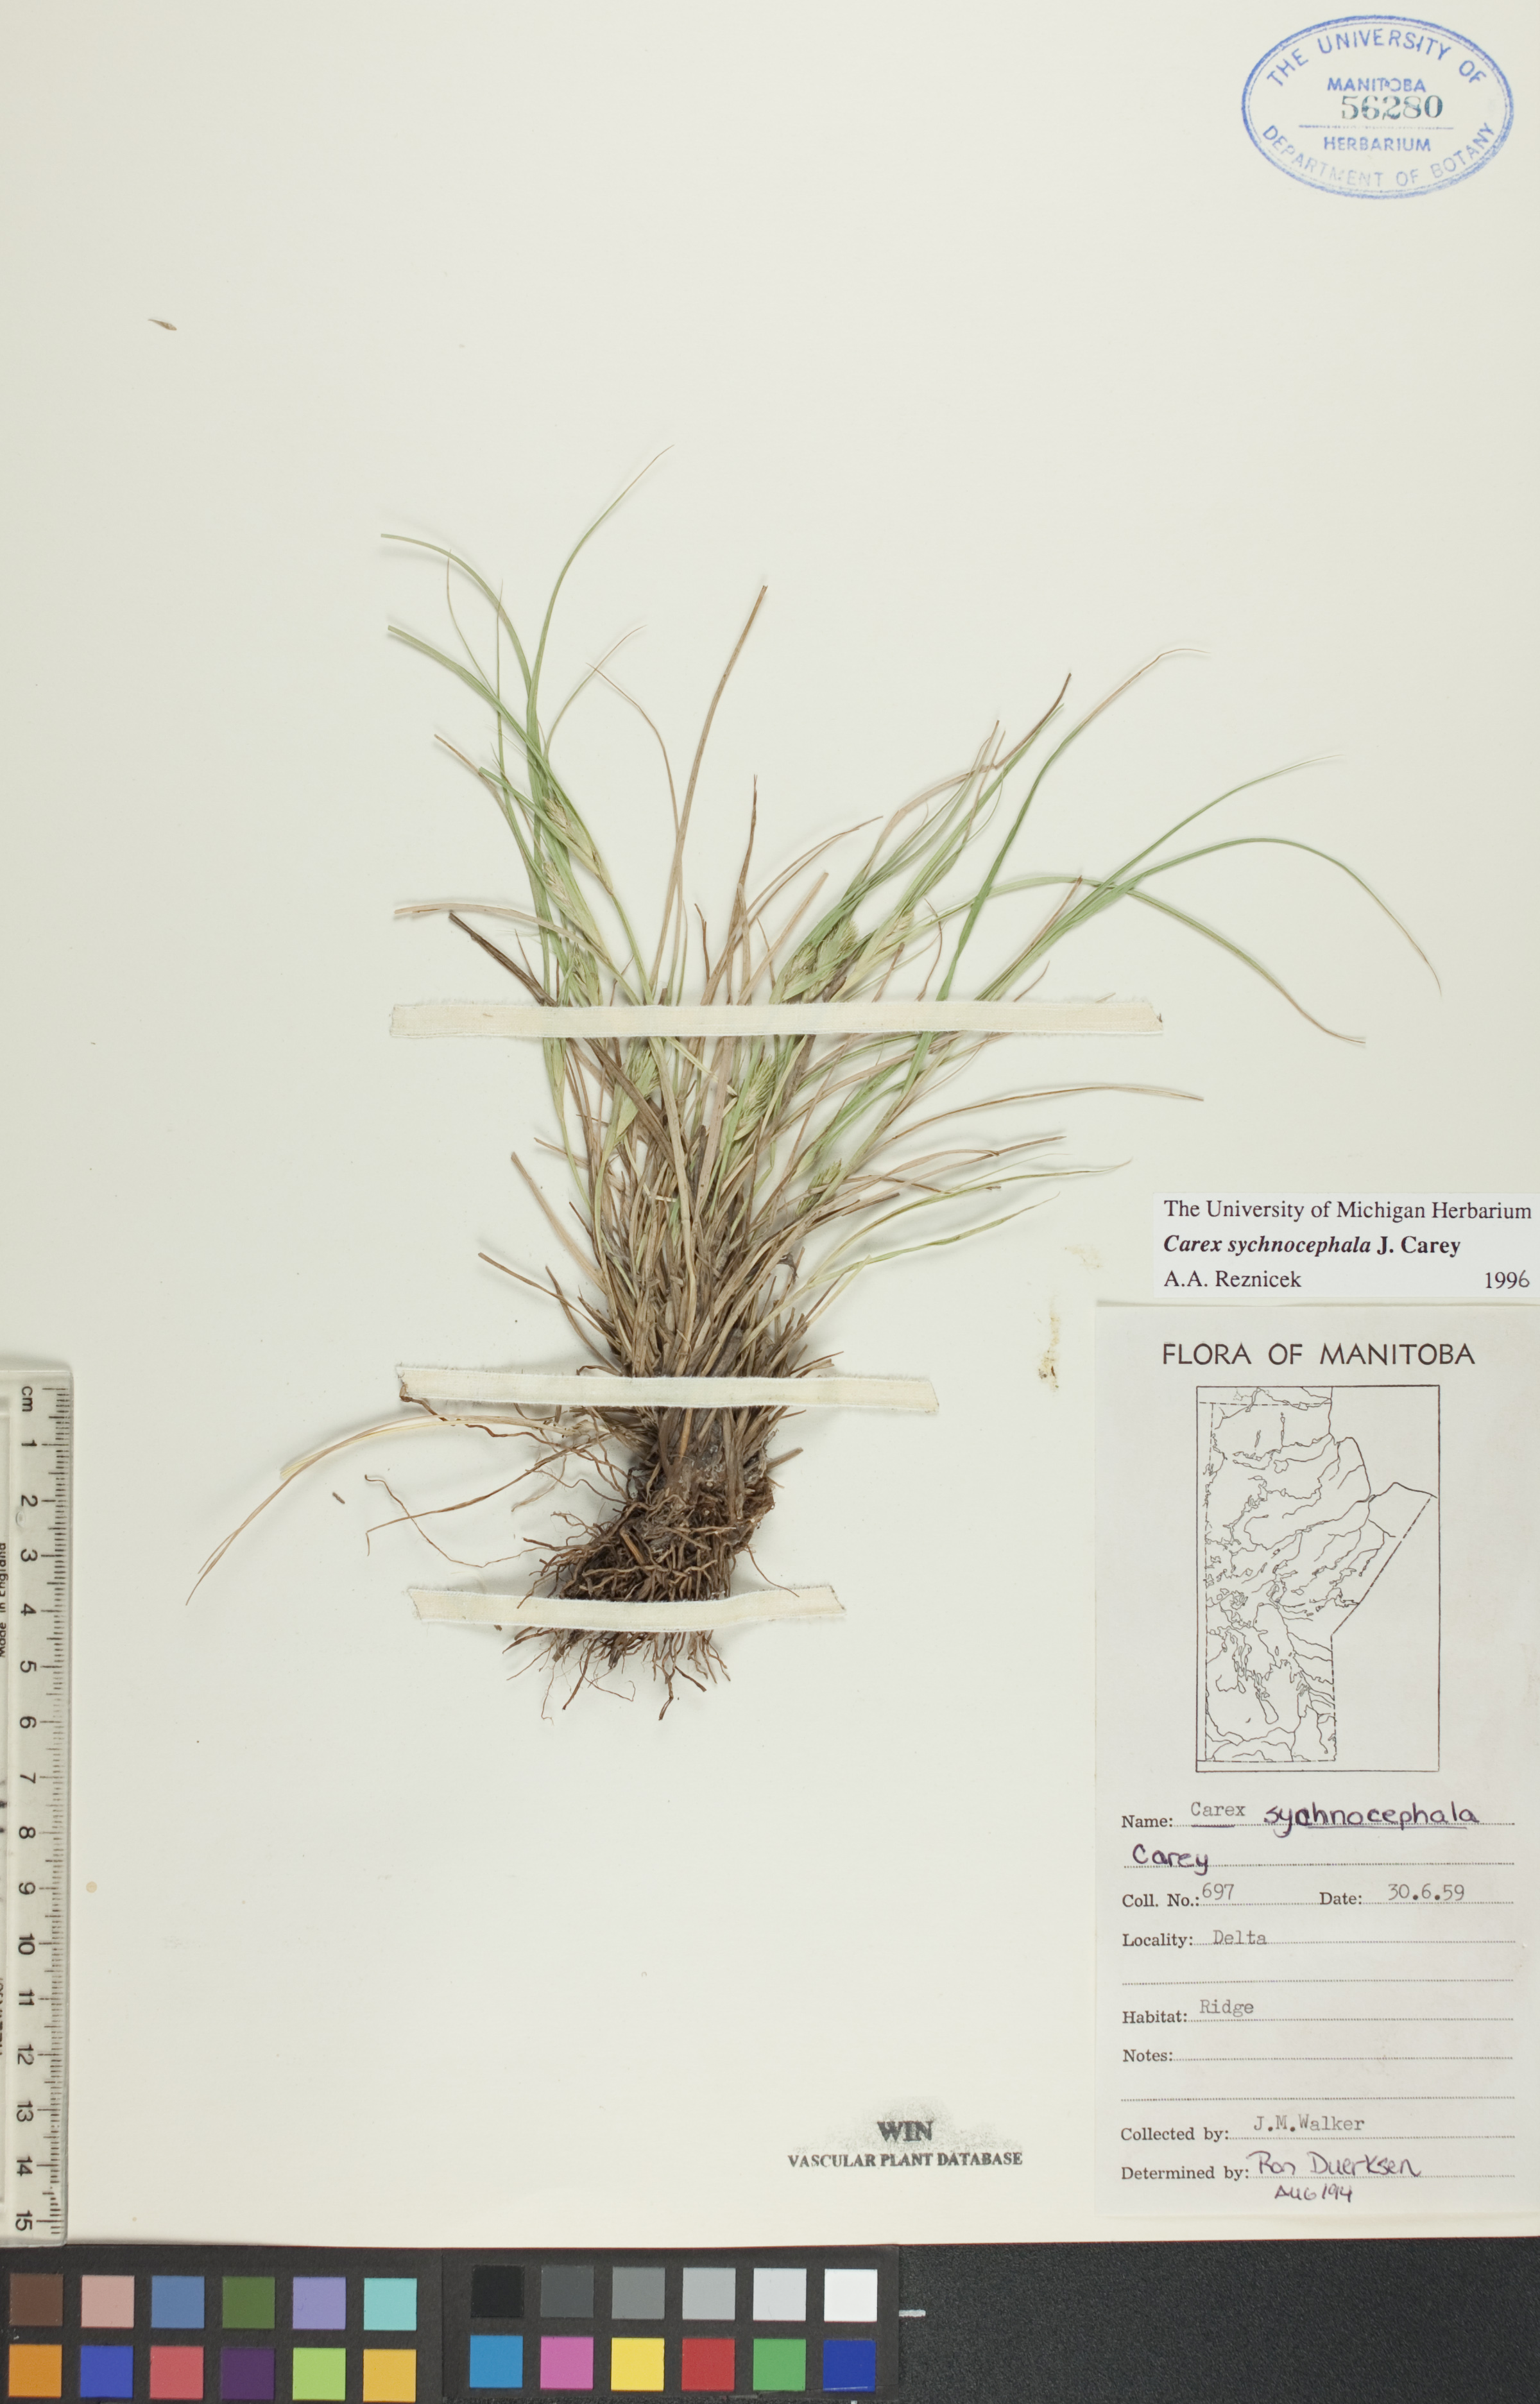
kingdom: Plantae
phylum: Tracheophyta
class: Liliopsida
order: Poales
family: Cyperaceae
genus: Carex
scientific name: Carex sychnocephala
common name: Dense long-beaked sedge
